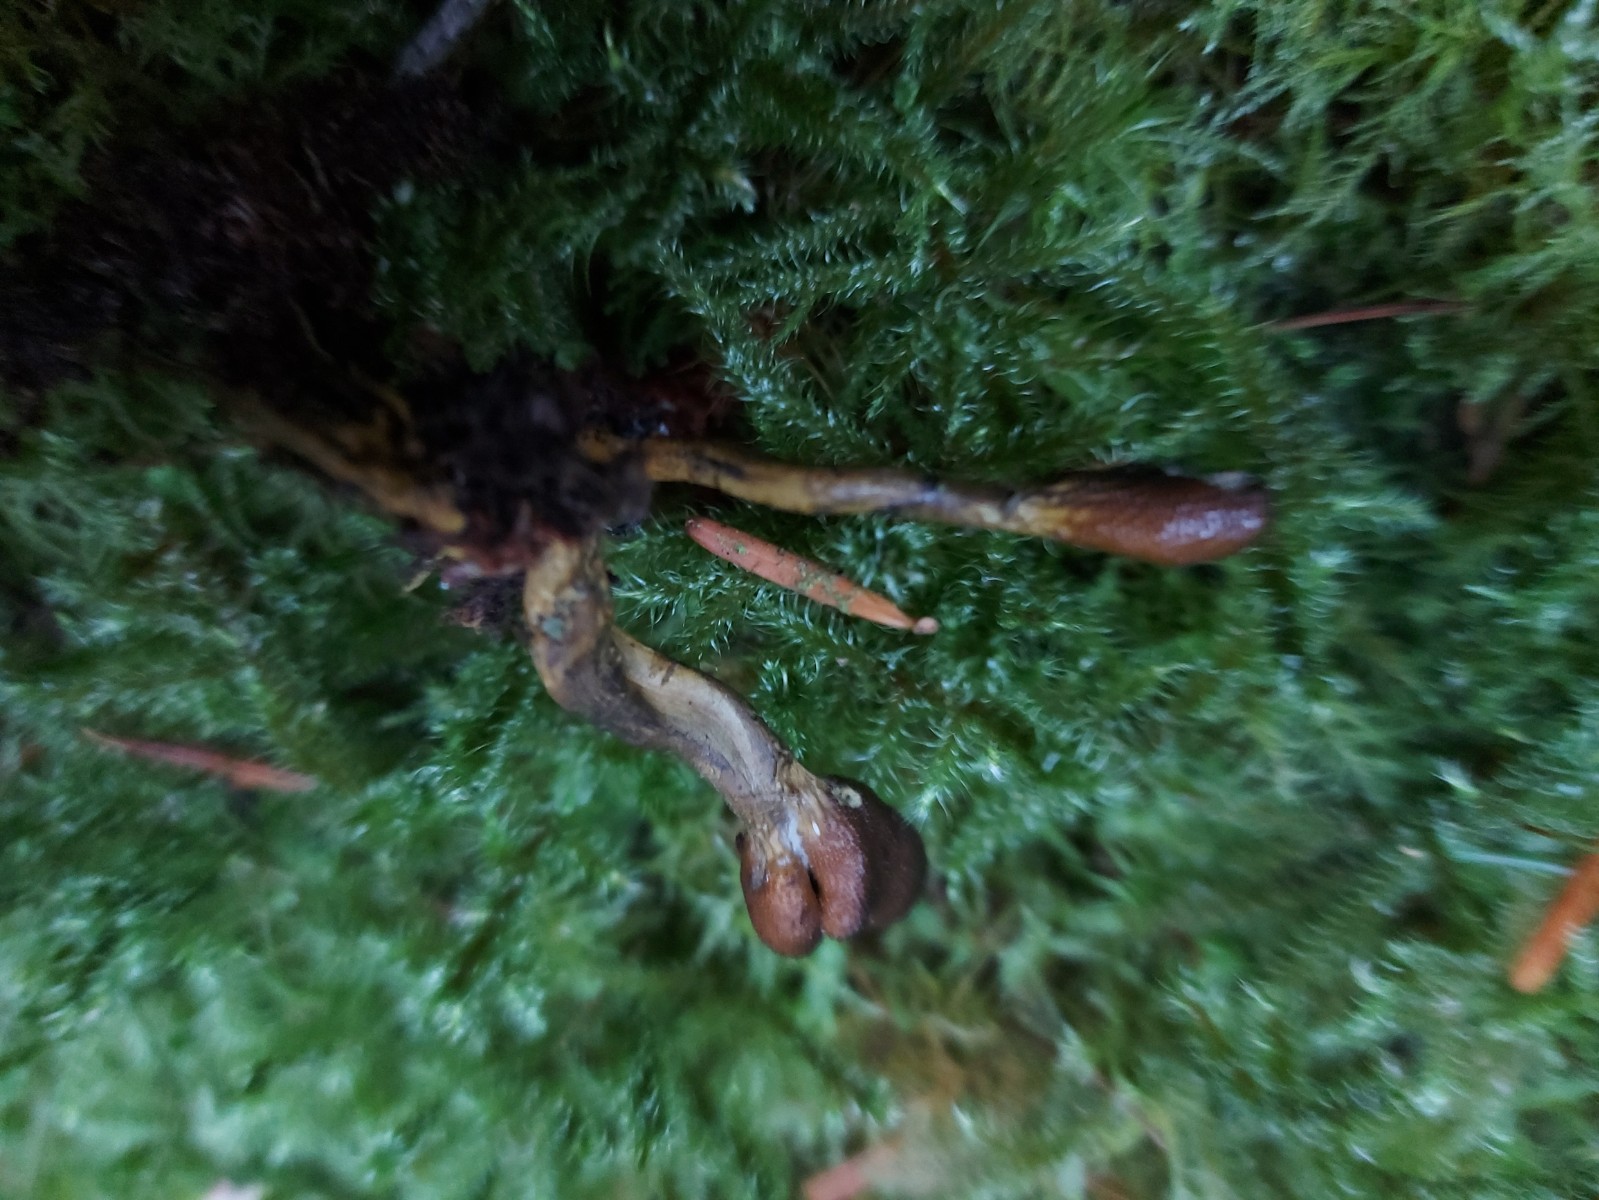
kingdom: Fungi
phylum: Ascomycota
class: Sordariomycetes
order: Hypocreales
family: Ophiocordycipitaceae
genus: Tolypocladium
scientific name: Tolypocladium ophioglossoides
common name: slank snyltekølle
